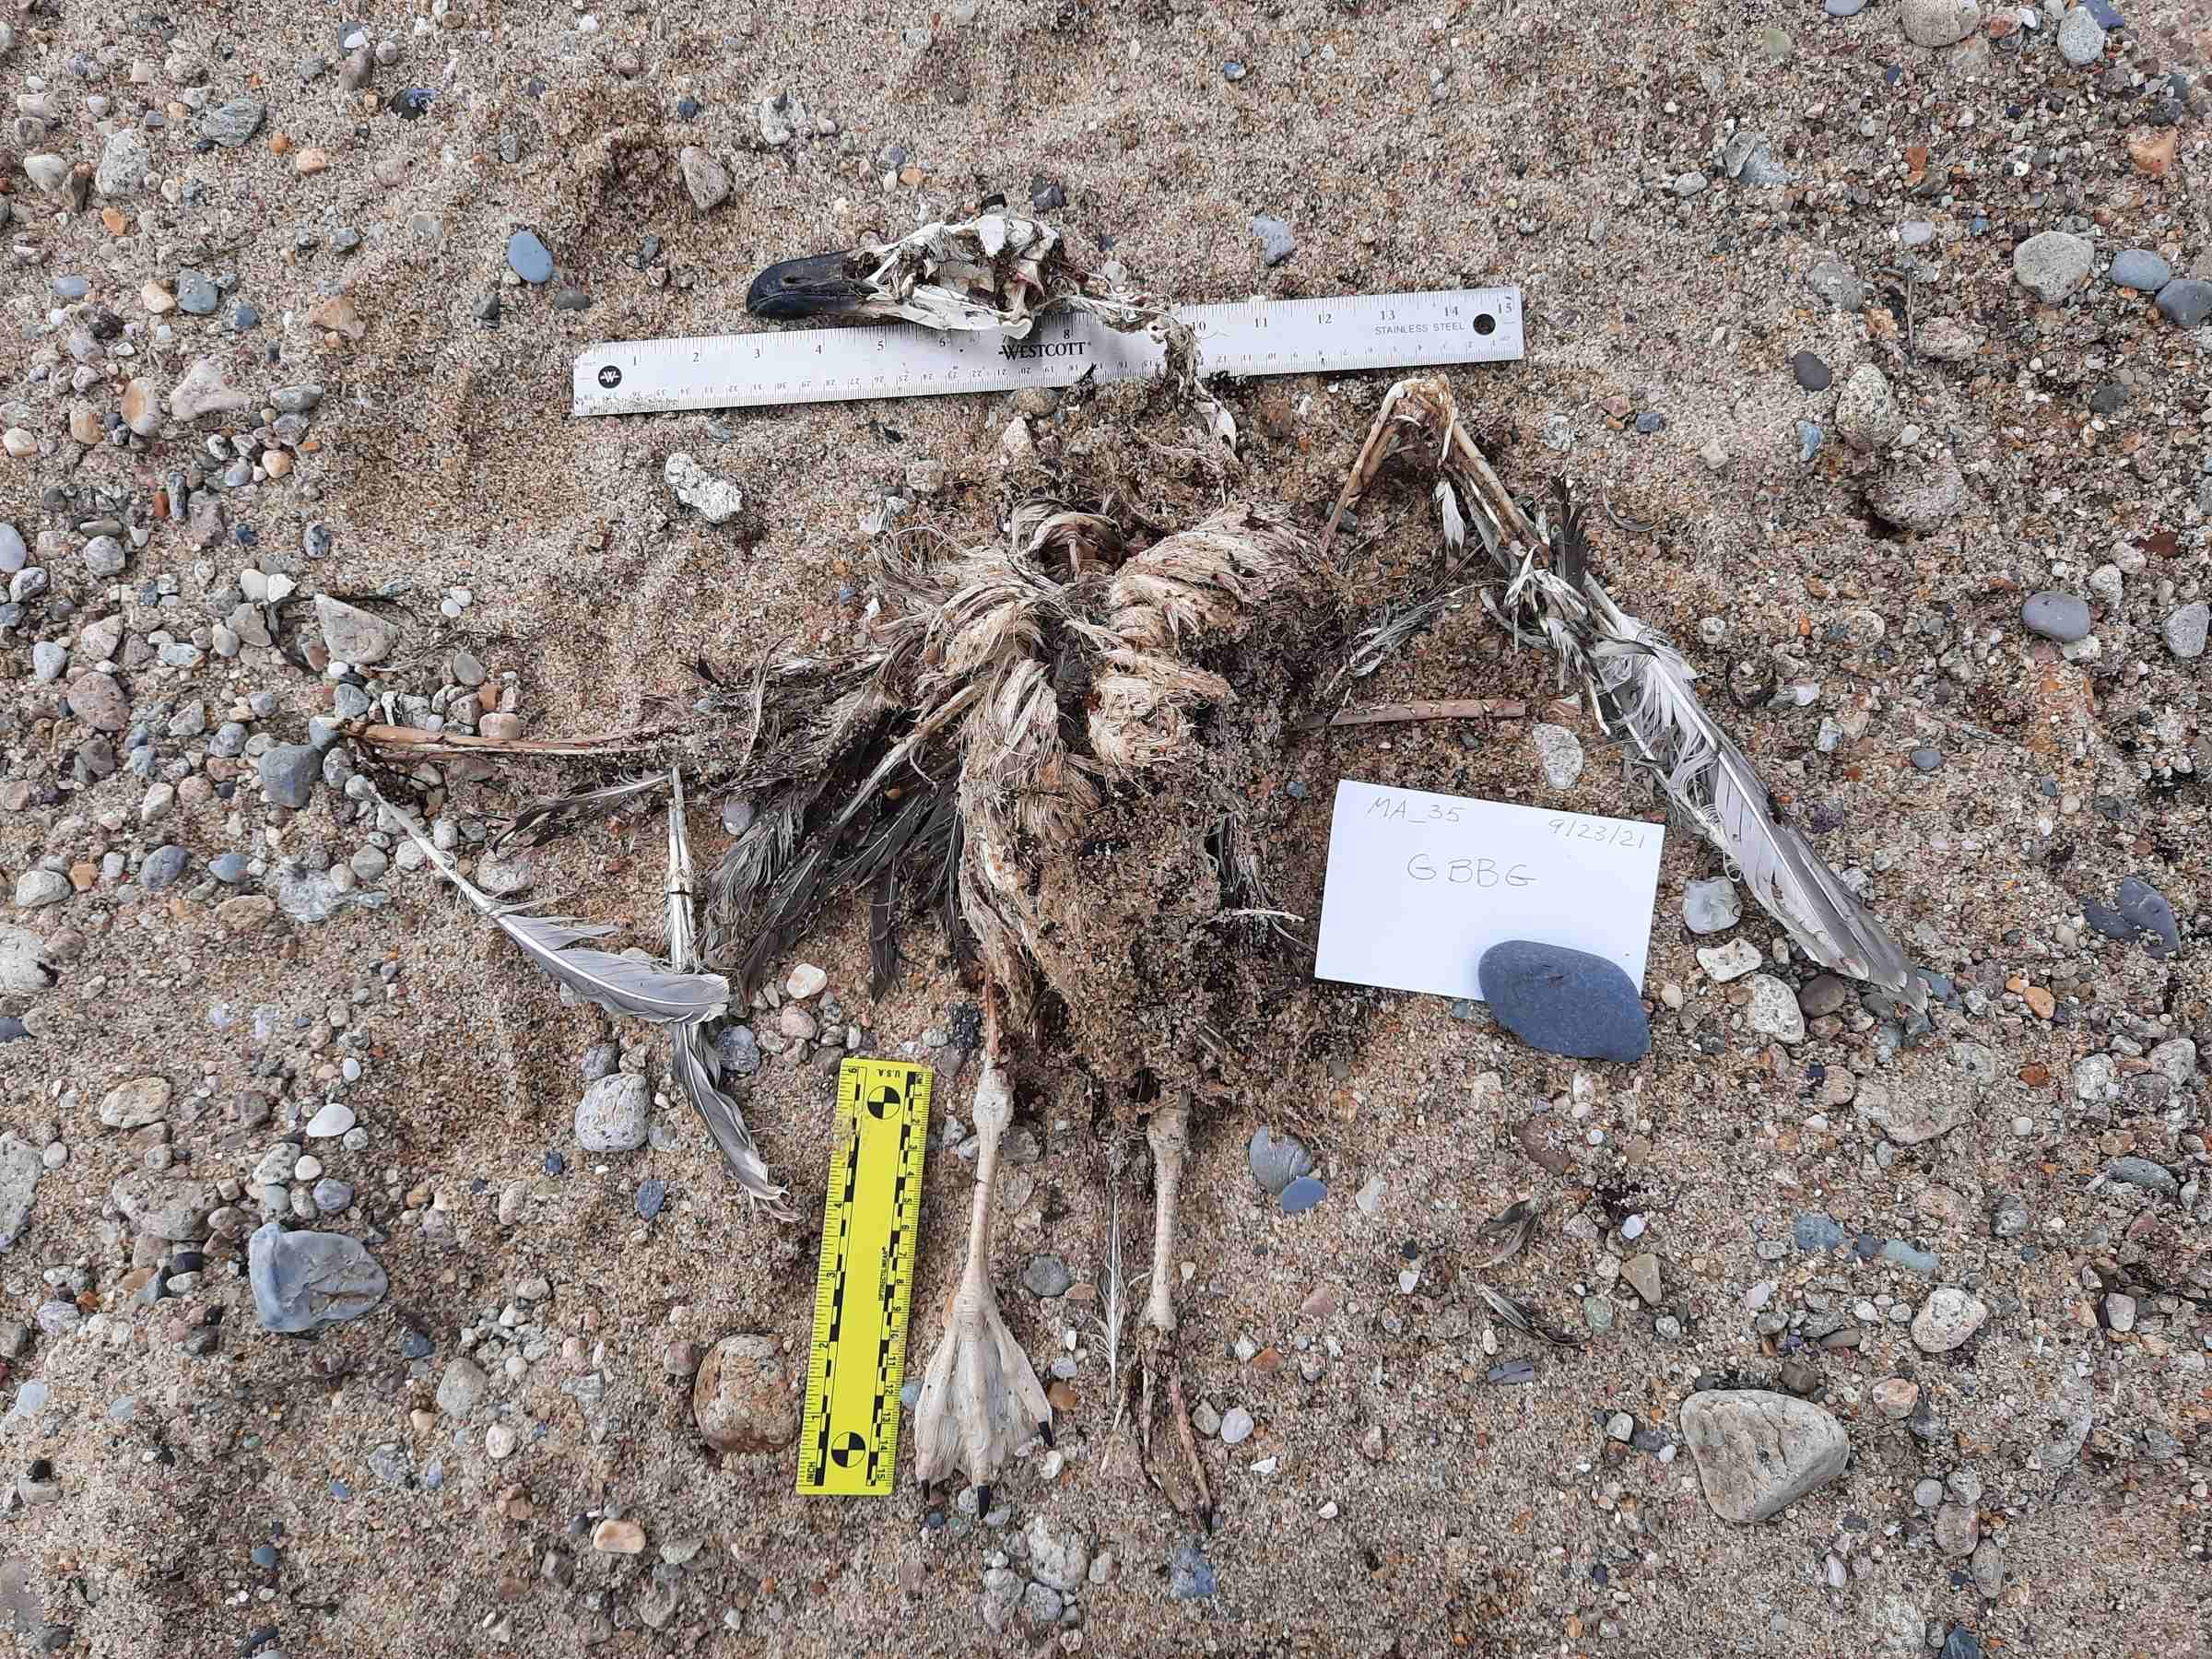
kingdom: Animalia
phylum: Chordata
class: Aves
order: Charadriiformes
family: Laridae
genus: Larus
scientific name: Larus marinus
